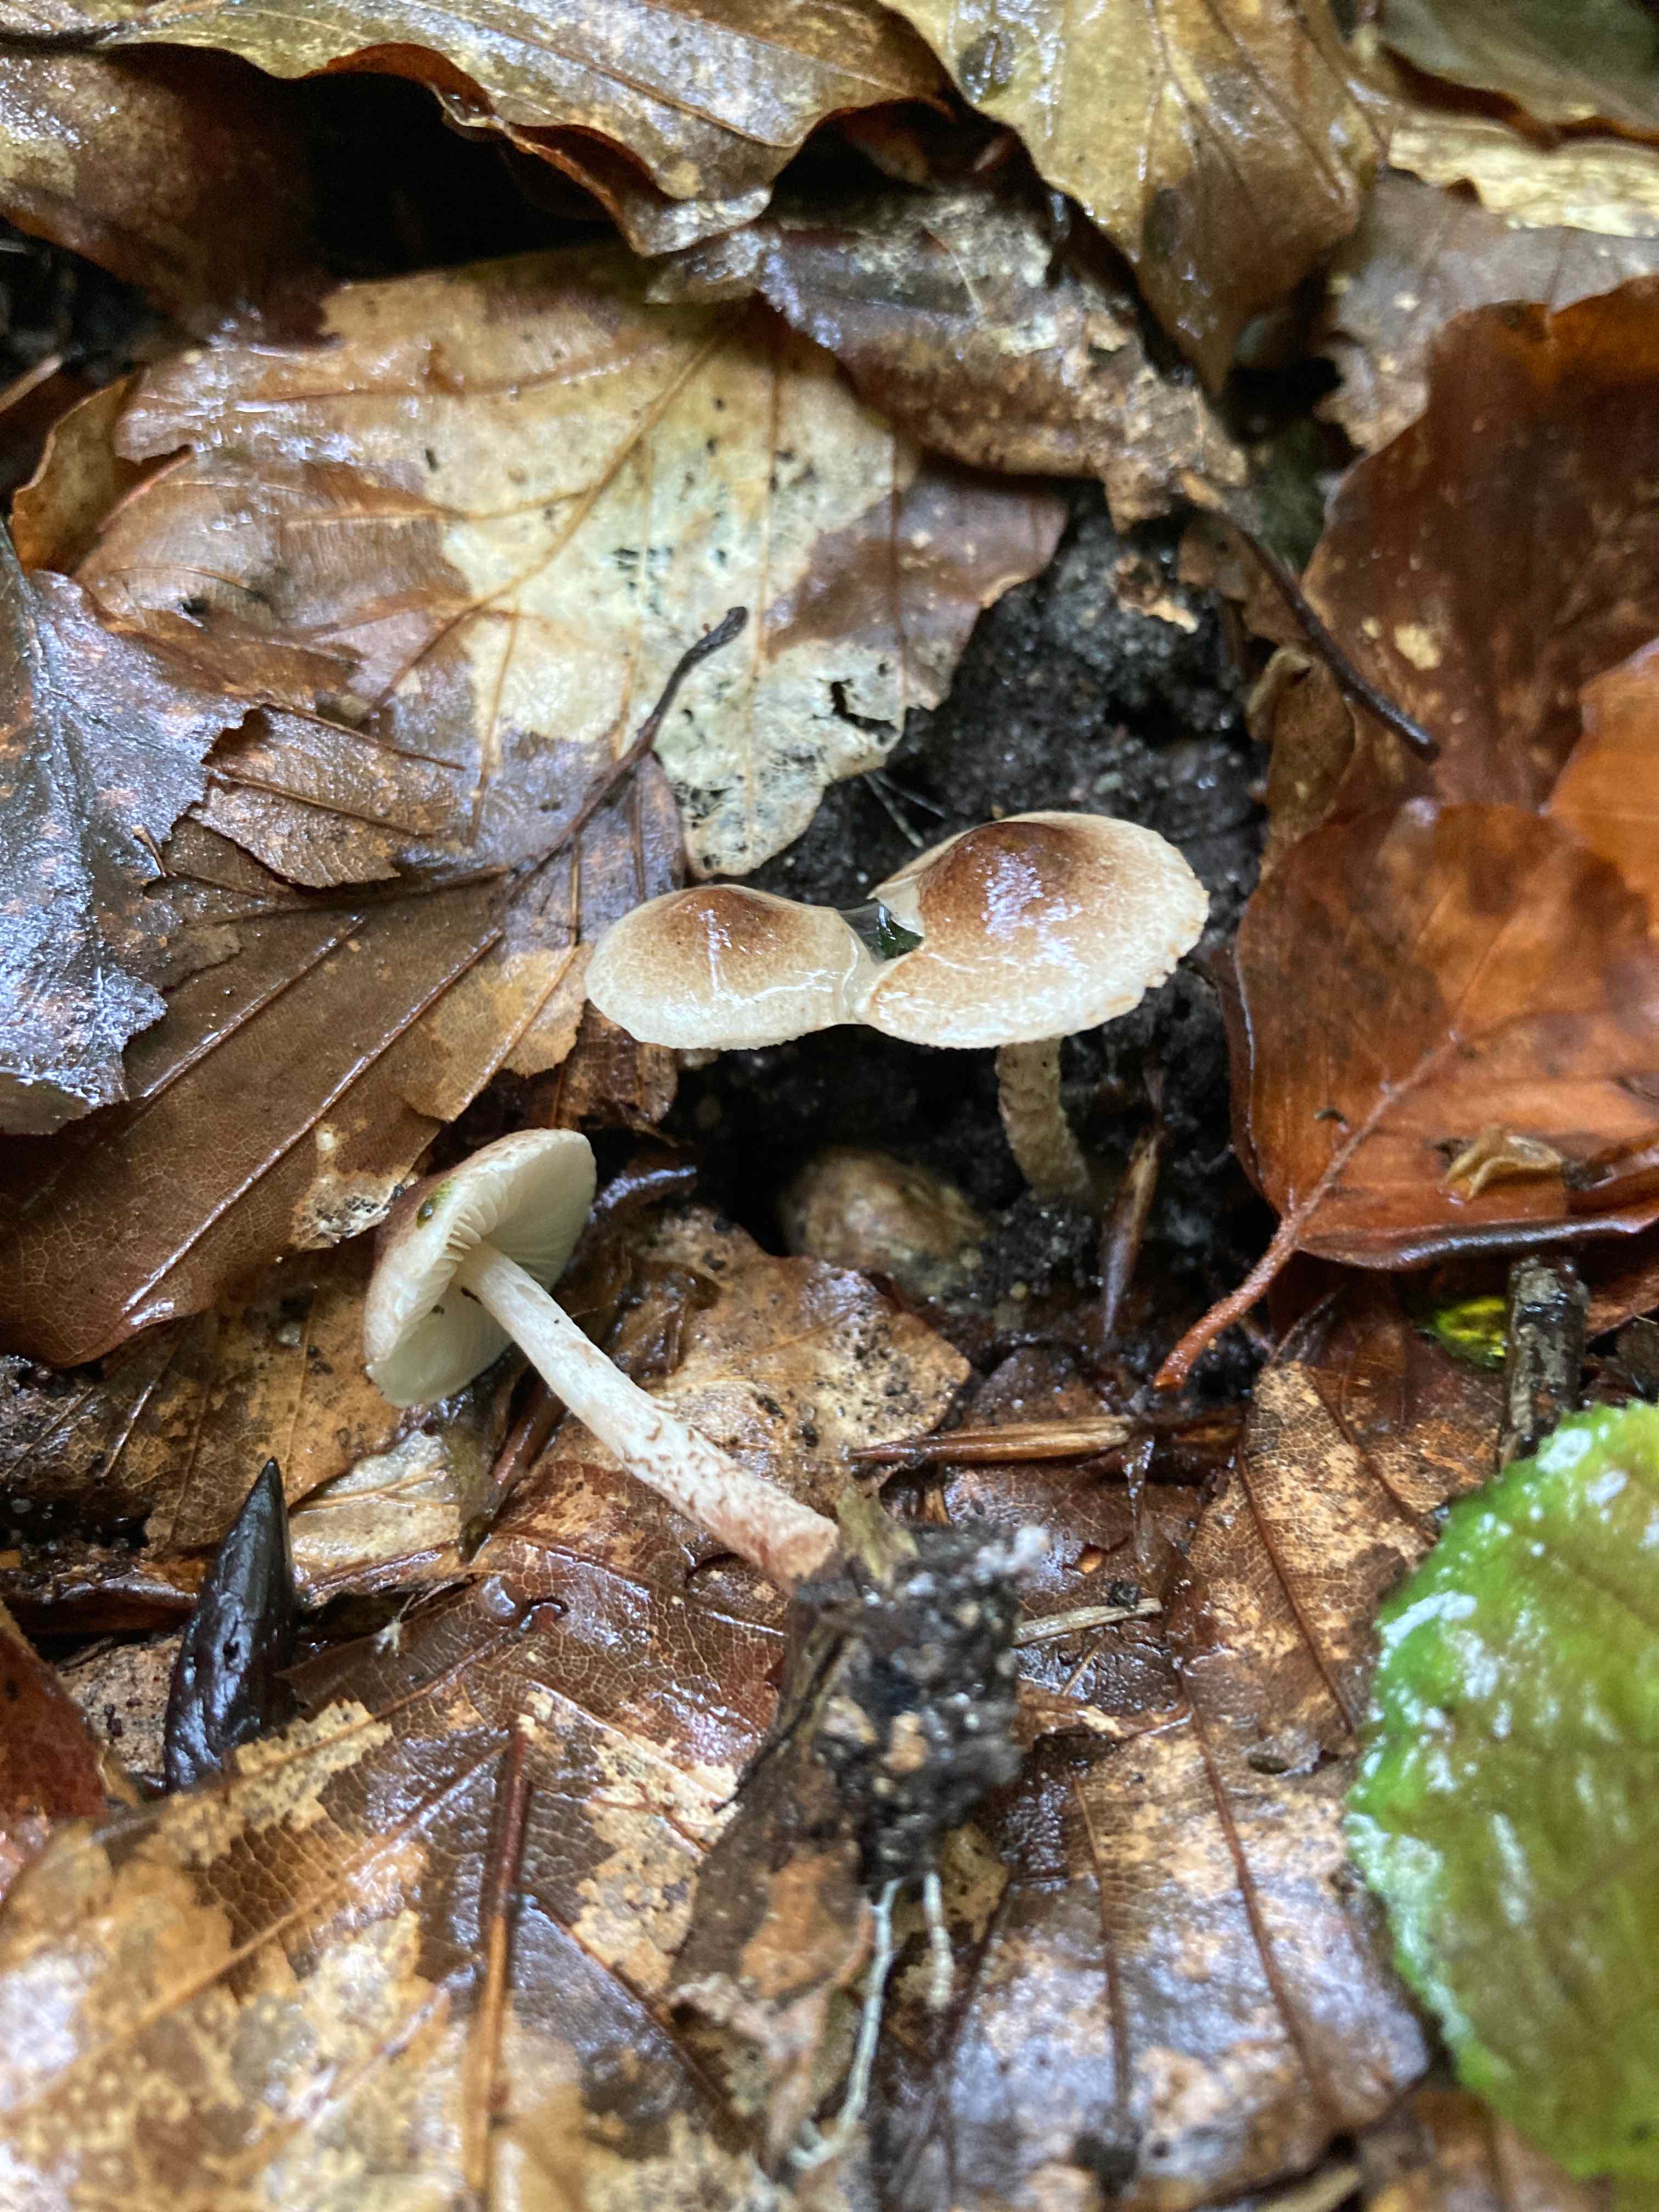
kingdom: Fungi
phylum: Basidiomycota
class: Agaricomycetes
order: Agaricales
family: Agaricaceae
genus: Lepiota
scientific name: Lepiota tomentella
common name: filtet parasolhat
